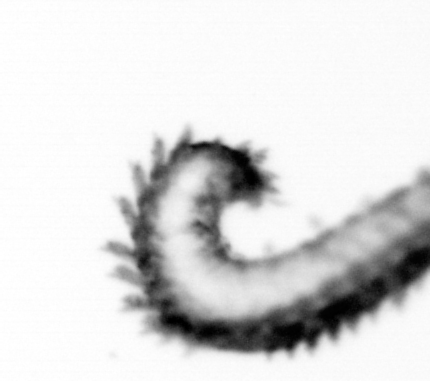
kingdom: Animalia
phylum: Annelida
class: Polychaeta
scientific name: Polychaeta
